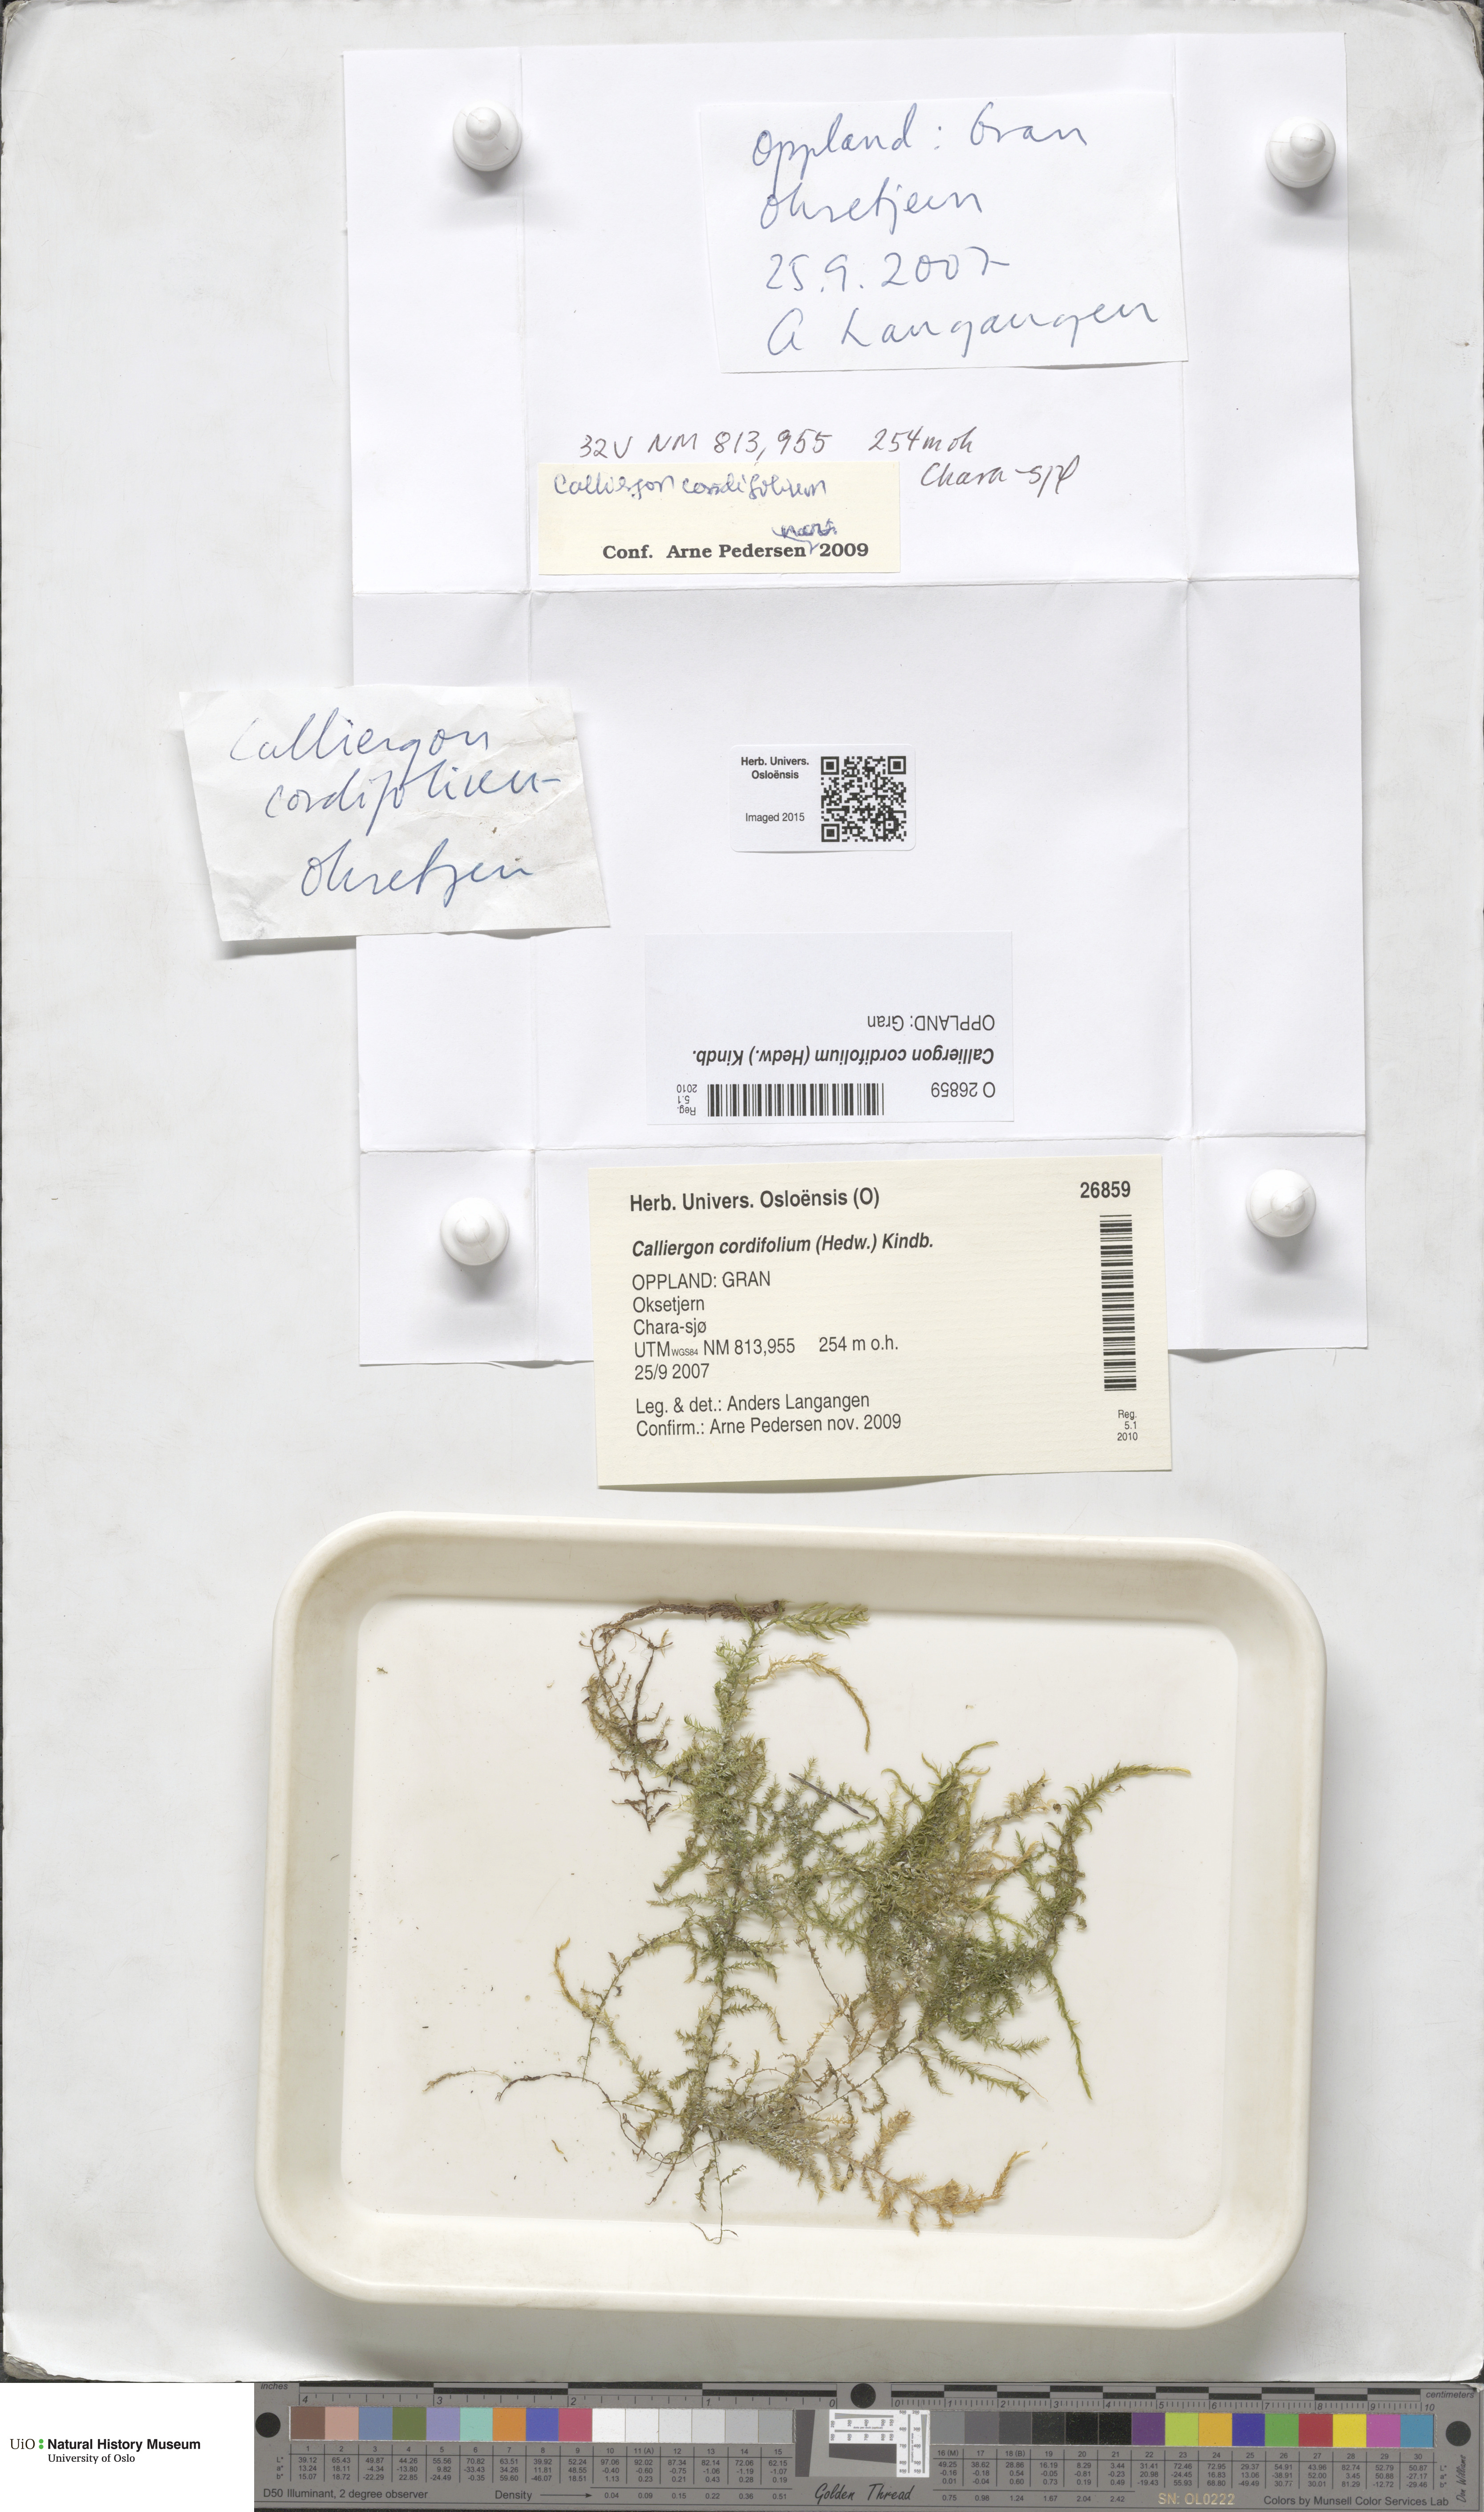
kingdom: Plantae
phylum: Bryophyta
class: Bryopsida
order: Hypnales
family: Calliergonaceae
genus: Calliergon
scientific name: Calliergon cordifolium
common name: Heart-leaved spear moss
